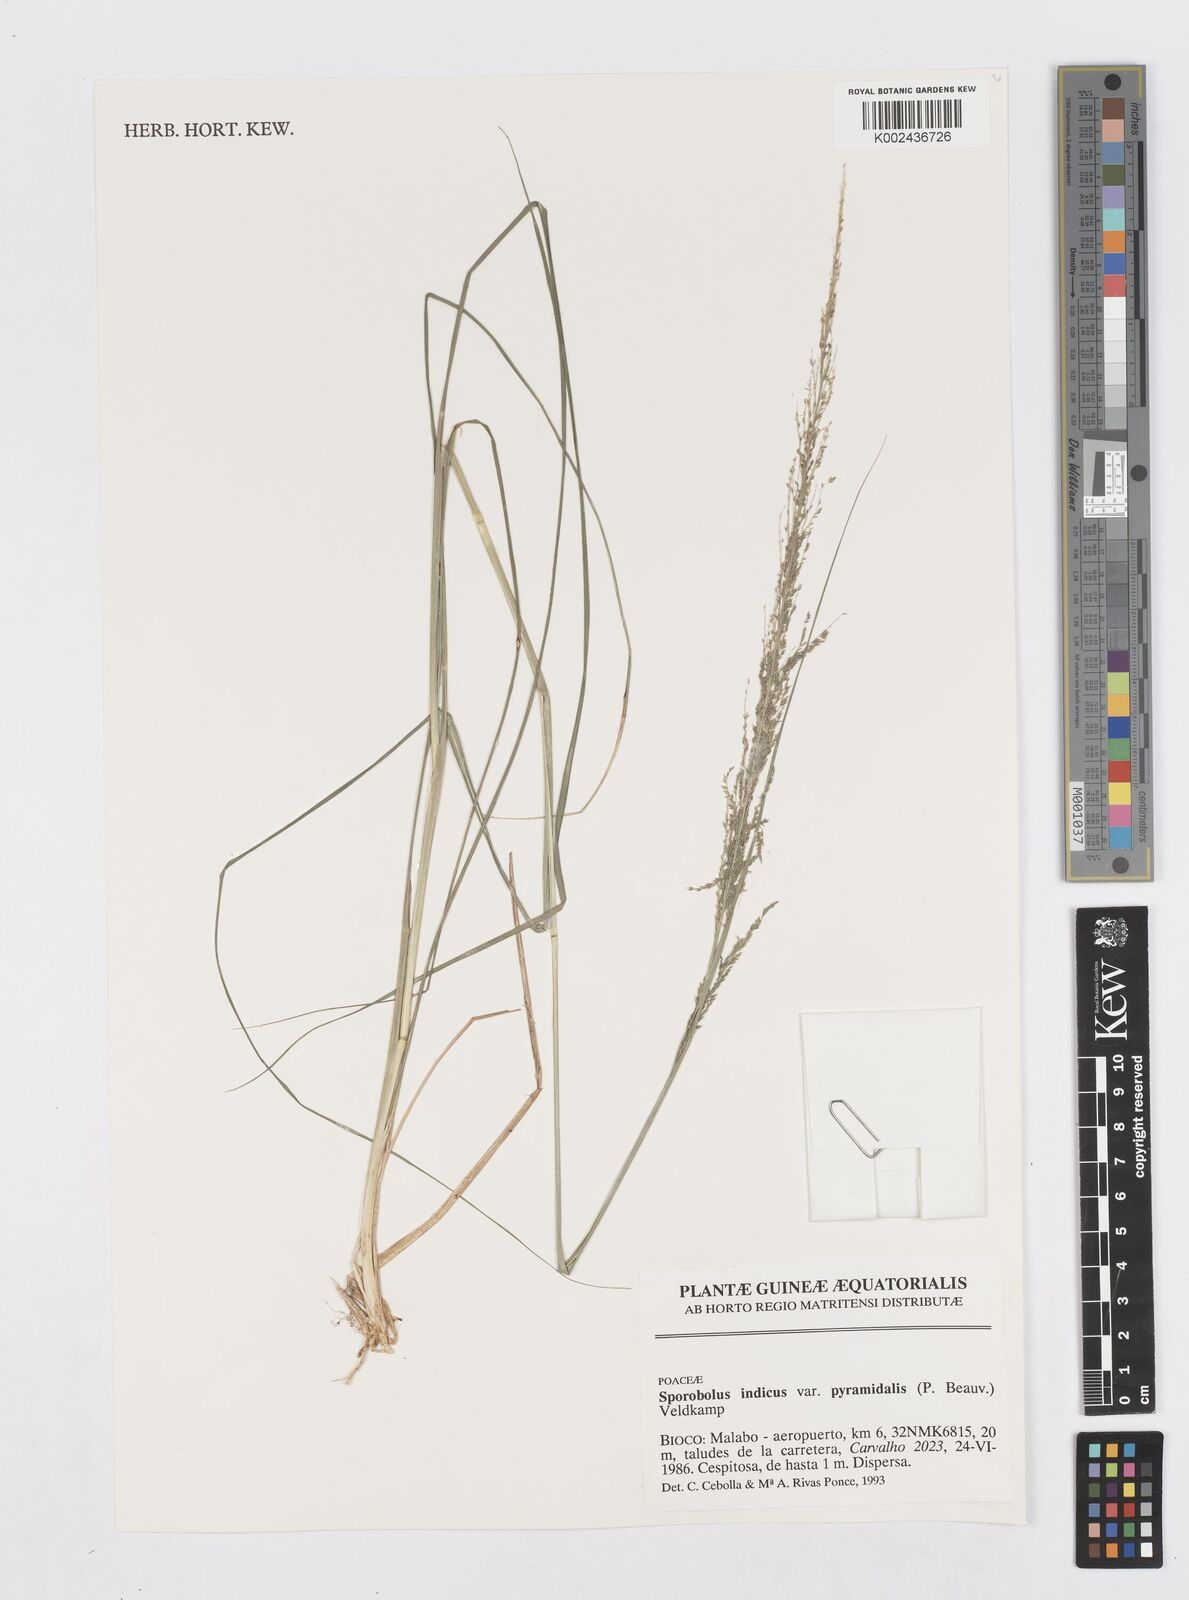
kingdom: Plantae
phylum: Tracheophyta
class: Liliopsida
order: Poales
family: Poaceae
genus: Sporobolus
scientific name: Sporobolus pyramidalis
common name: West indian dropseed
